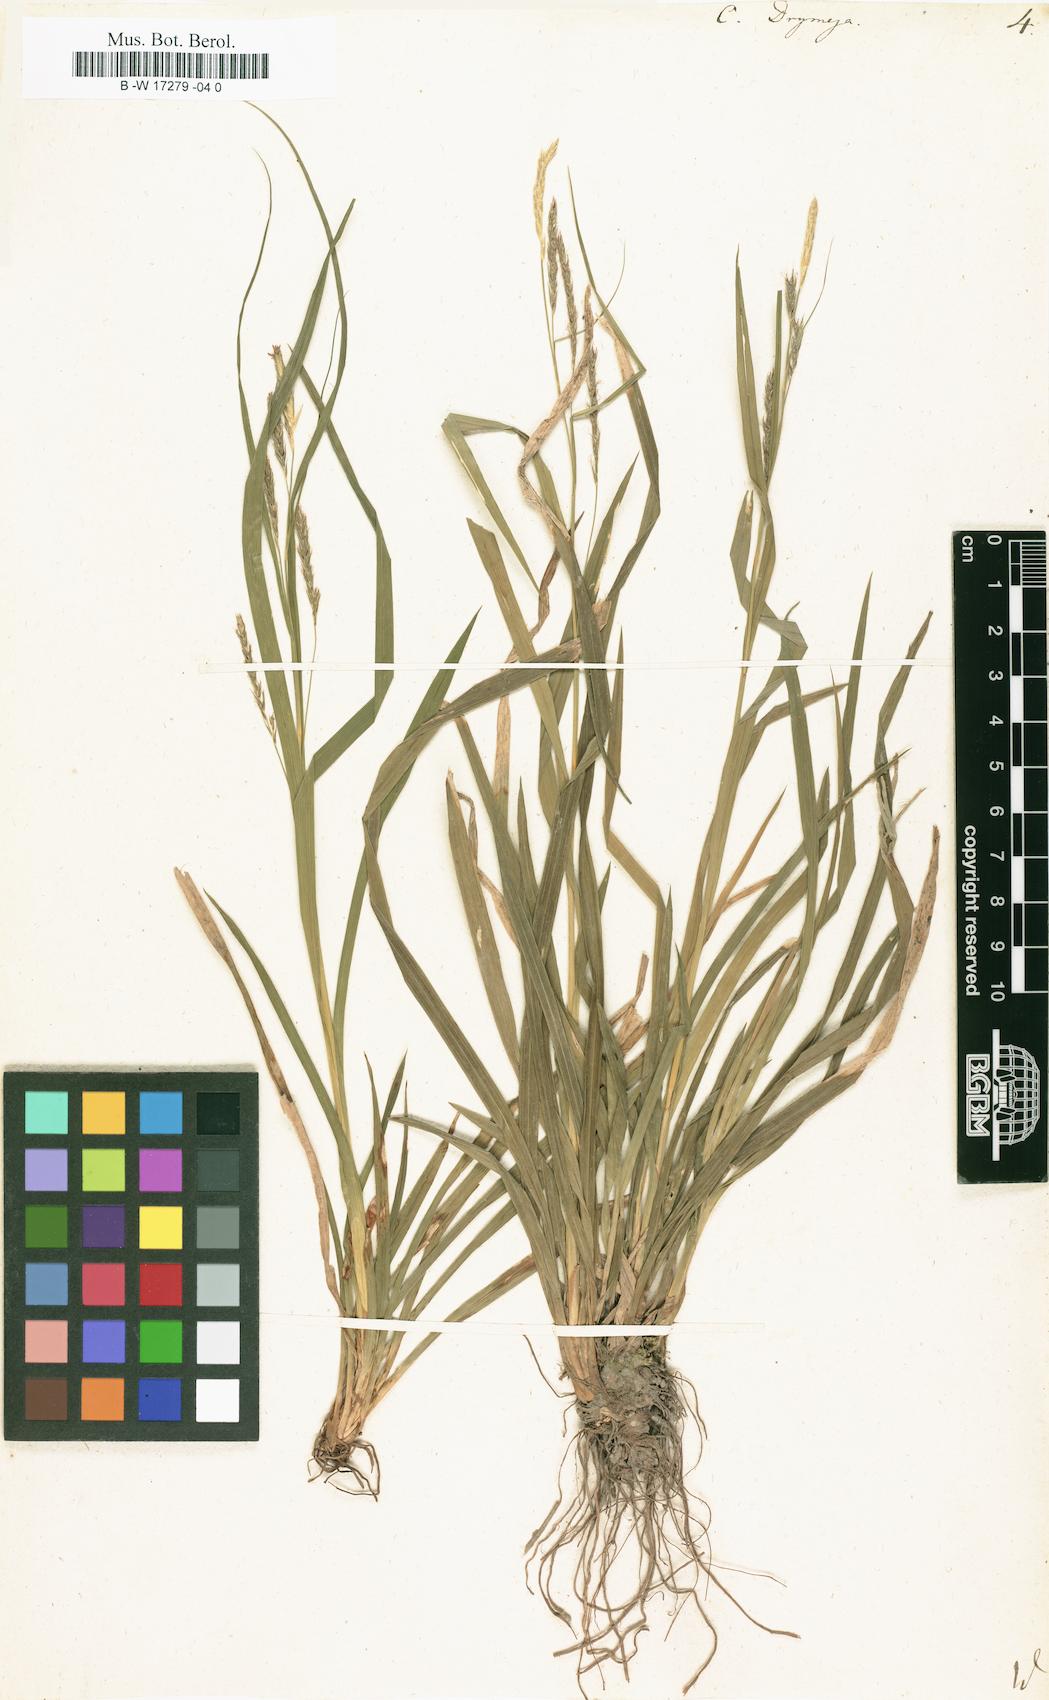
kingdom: Plantae
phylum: Tracheophyta
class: Liliopsida
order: Poales
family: Cyperaceae
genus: Carex
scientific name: Carex sylvatica
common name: Wood-sedge
